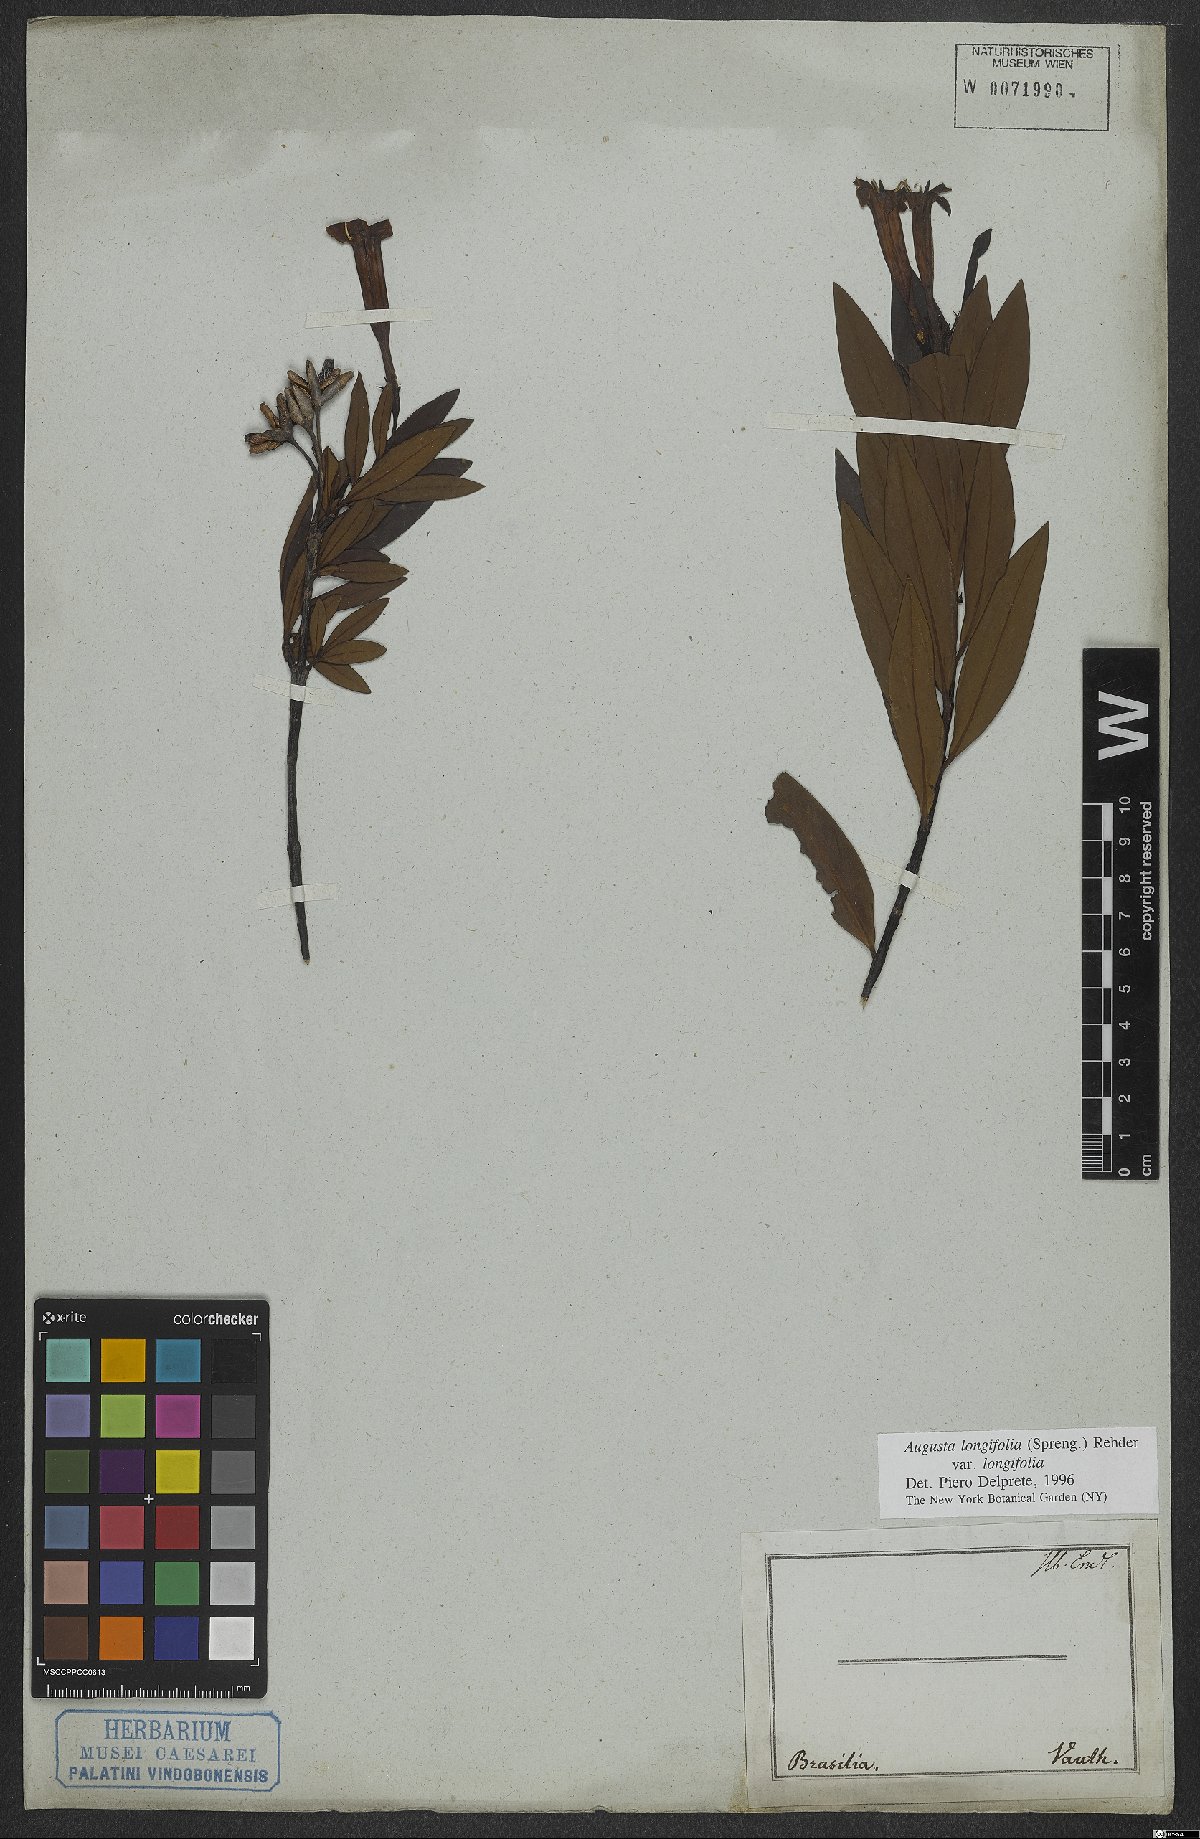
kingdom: Plantae
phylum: Tracheophyta
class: Magnoliopsida
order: Gentianales
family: Rubiaceae
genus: Augusta
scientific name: Augusta longifolia
